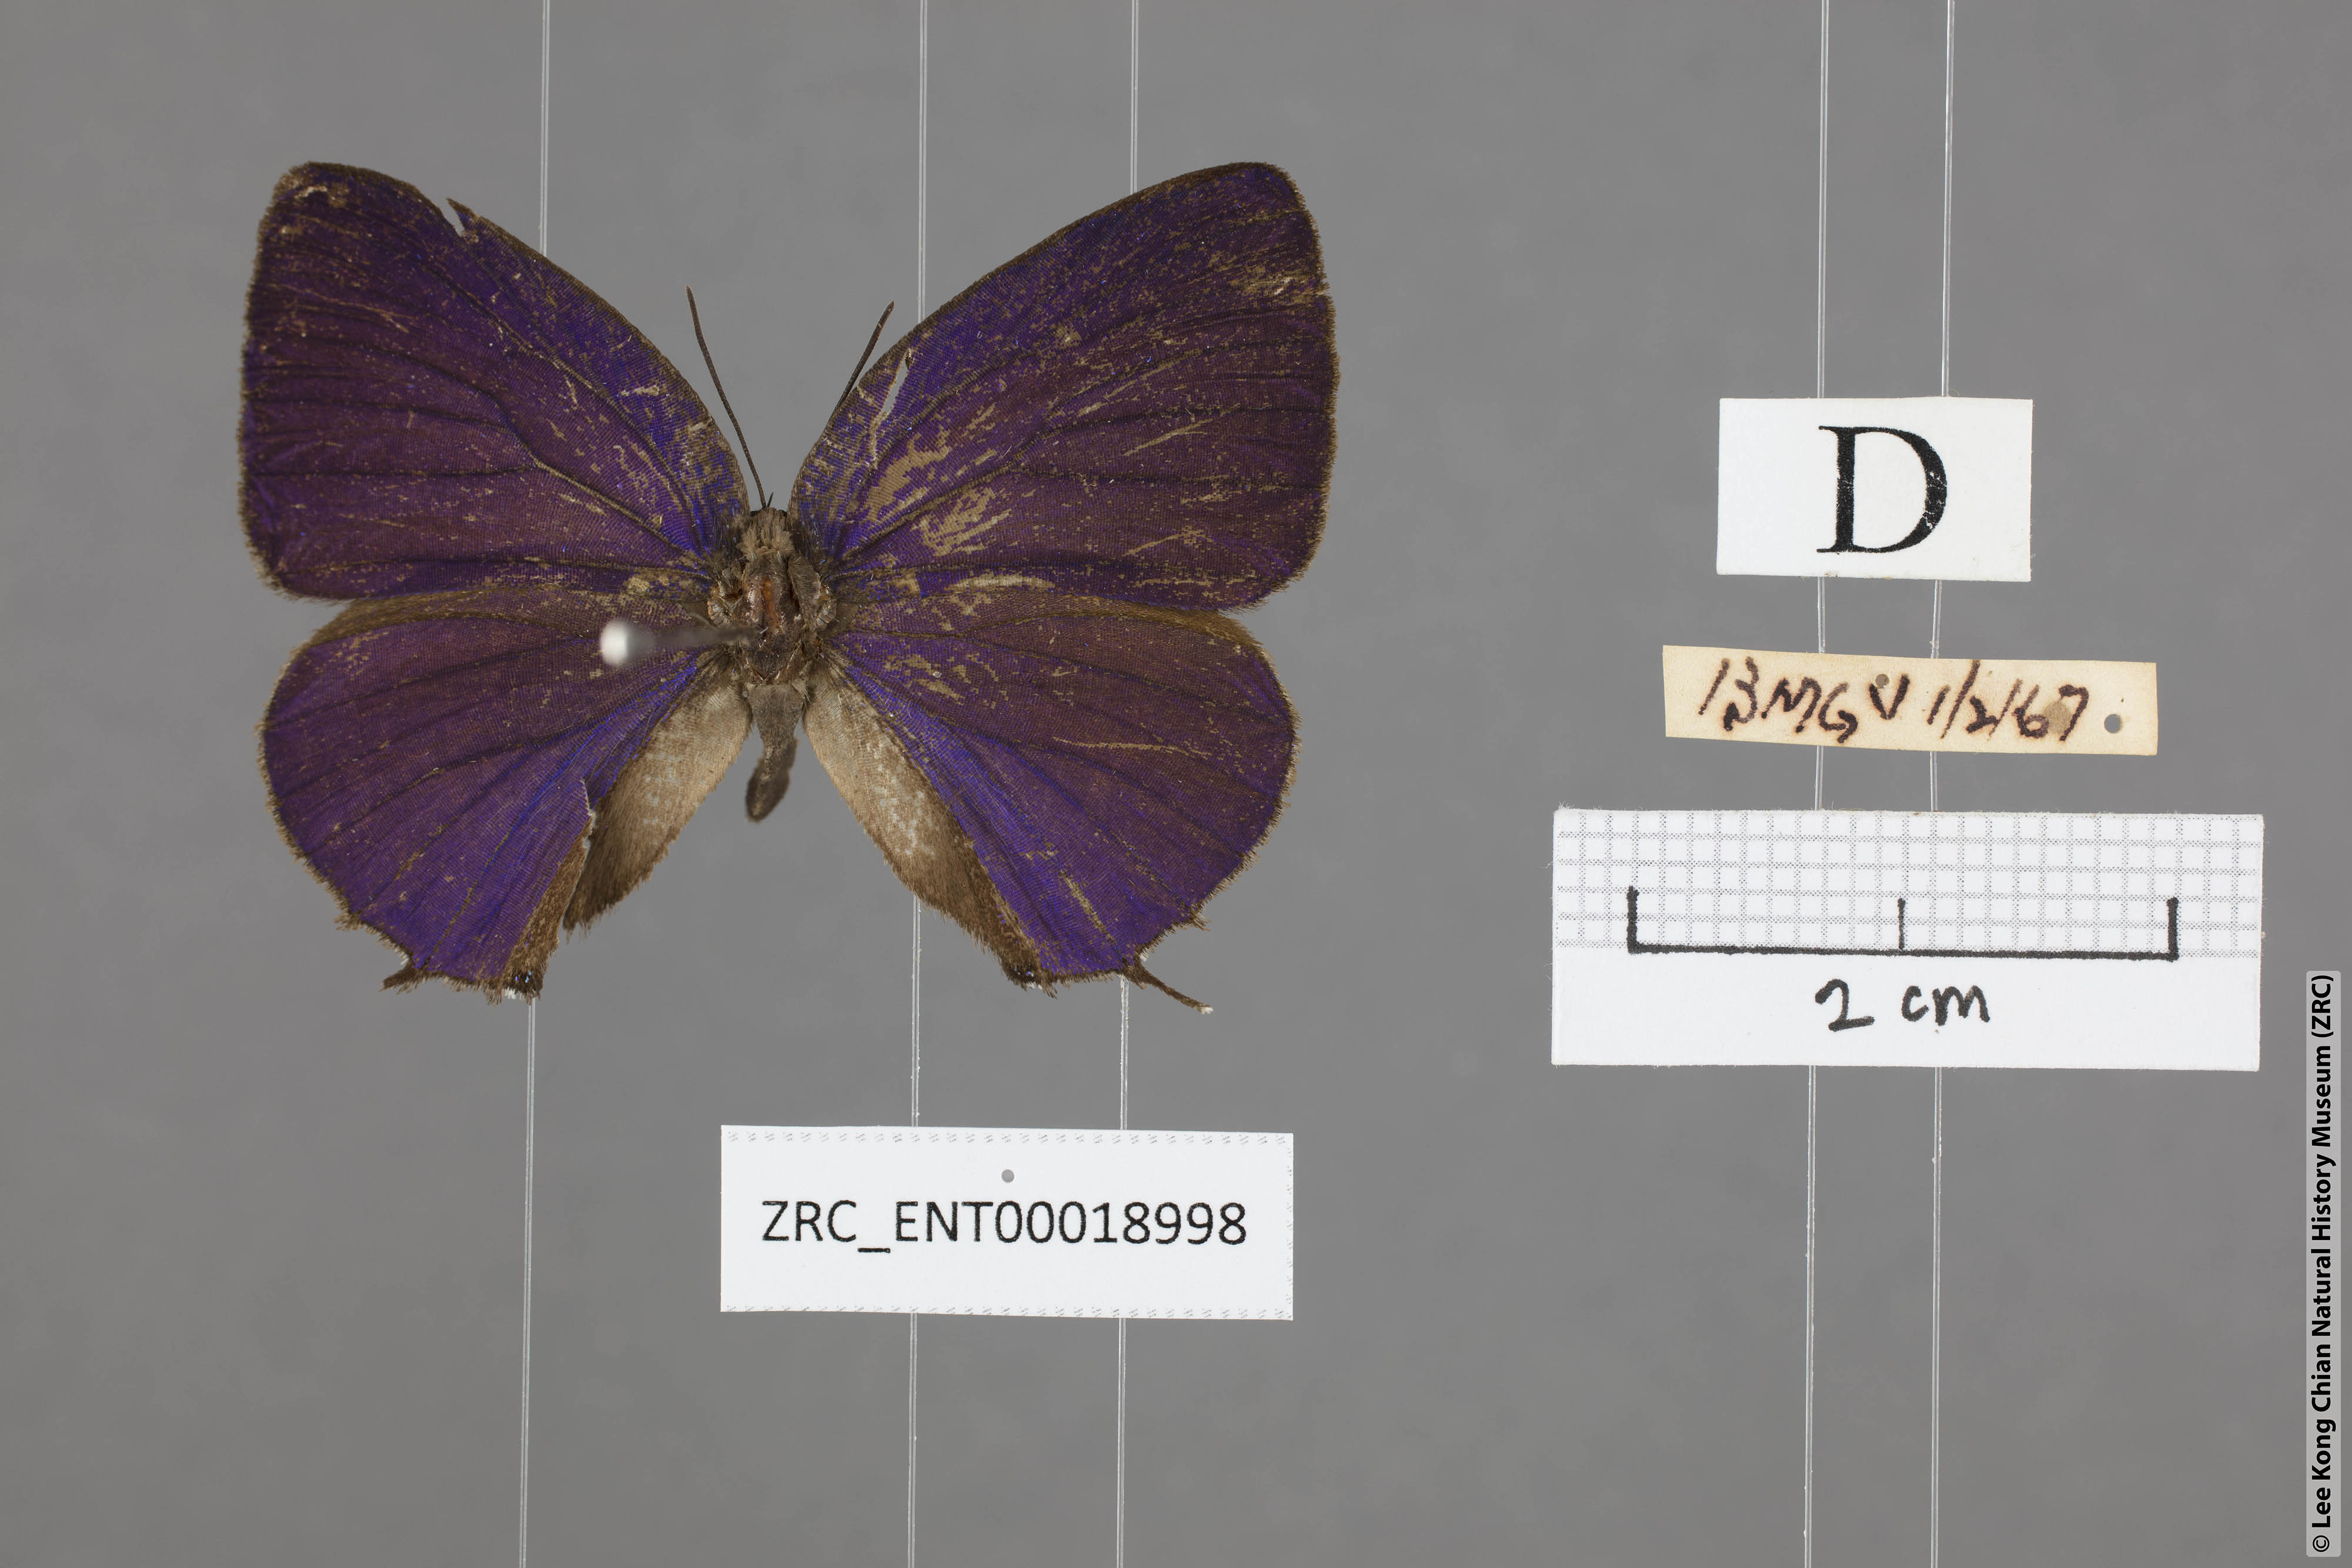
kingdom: Animalia
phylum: Arthropoda
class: Insecta
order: Lepidoptera
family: Lycaenidae
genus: Arhopala
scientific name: Arhopala aedias
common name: Large metallic oakblue
